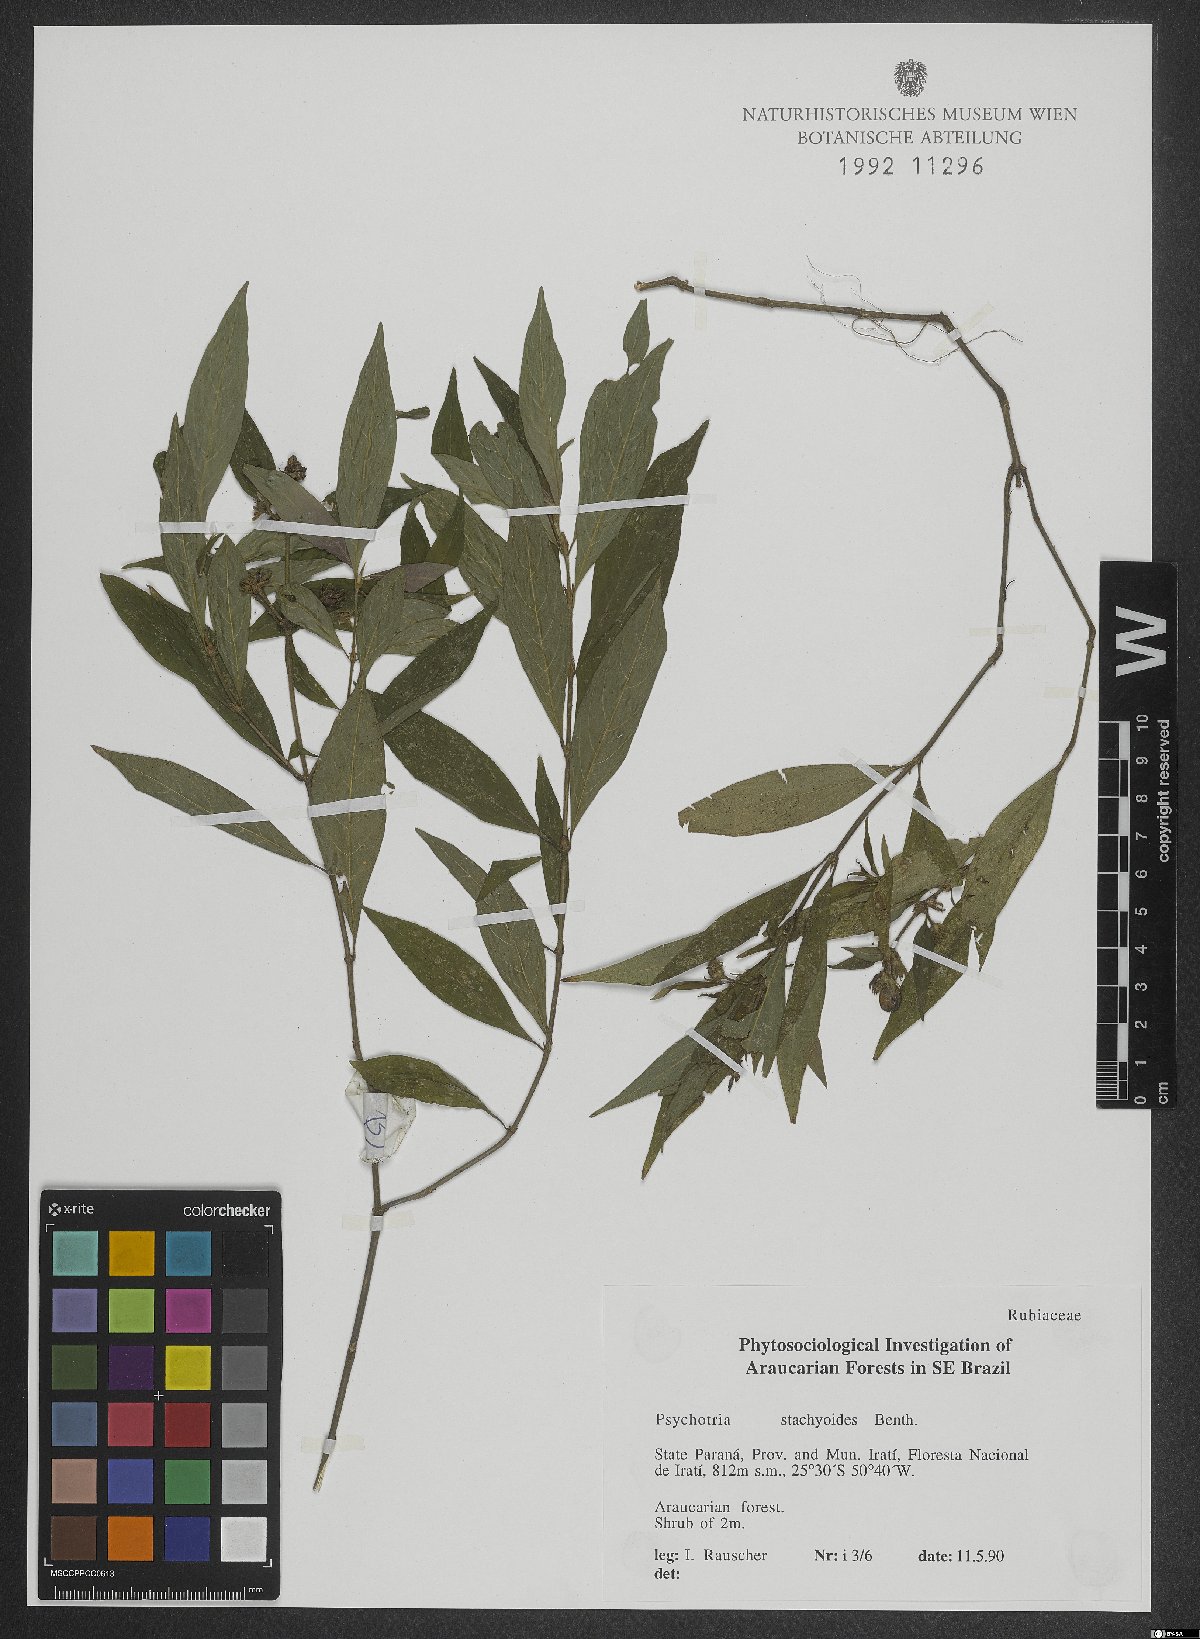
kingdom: Plantae
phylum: Tracheophyta
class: Magnoliopsida
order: Gentianales
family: Rubiaceae
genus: Psychotria
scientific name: Psychotria stachyoides
